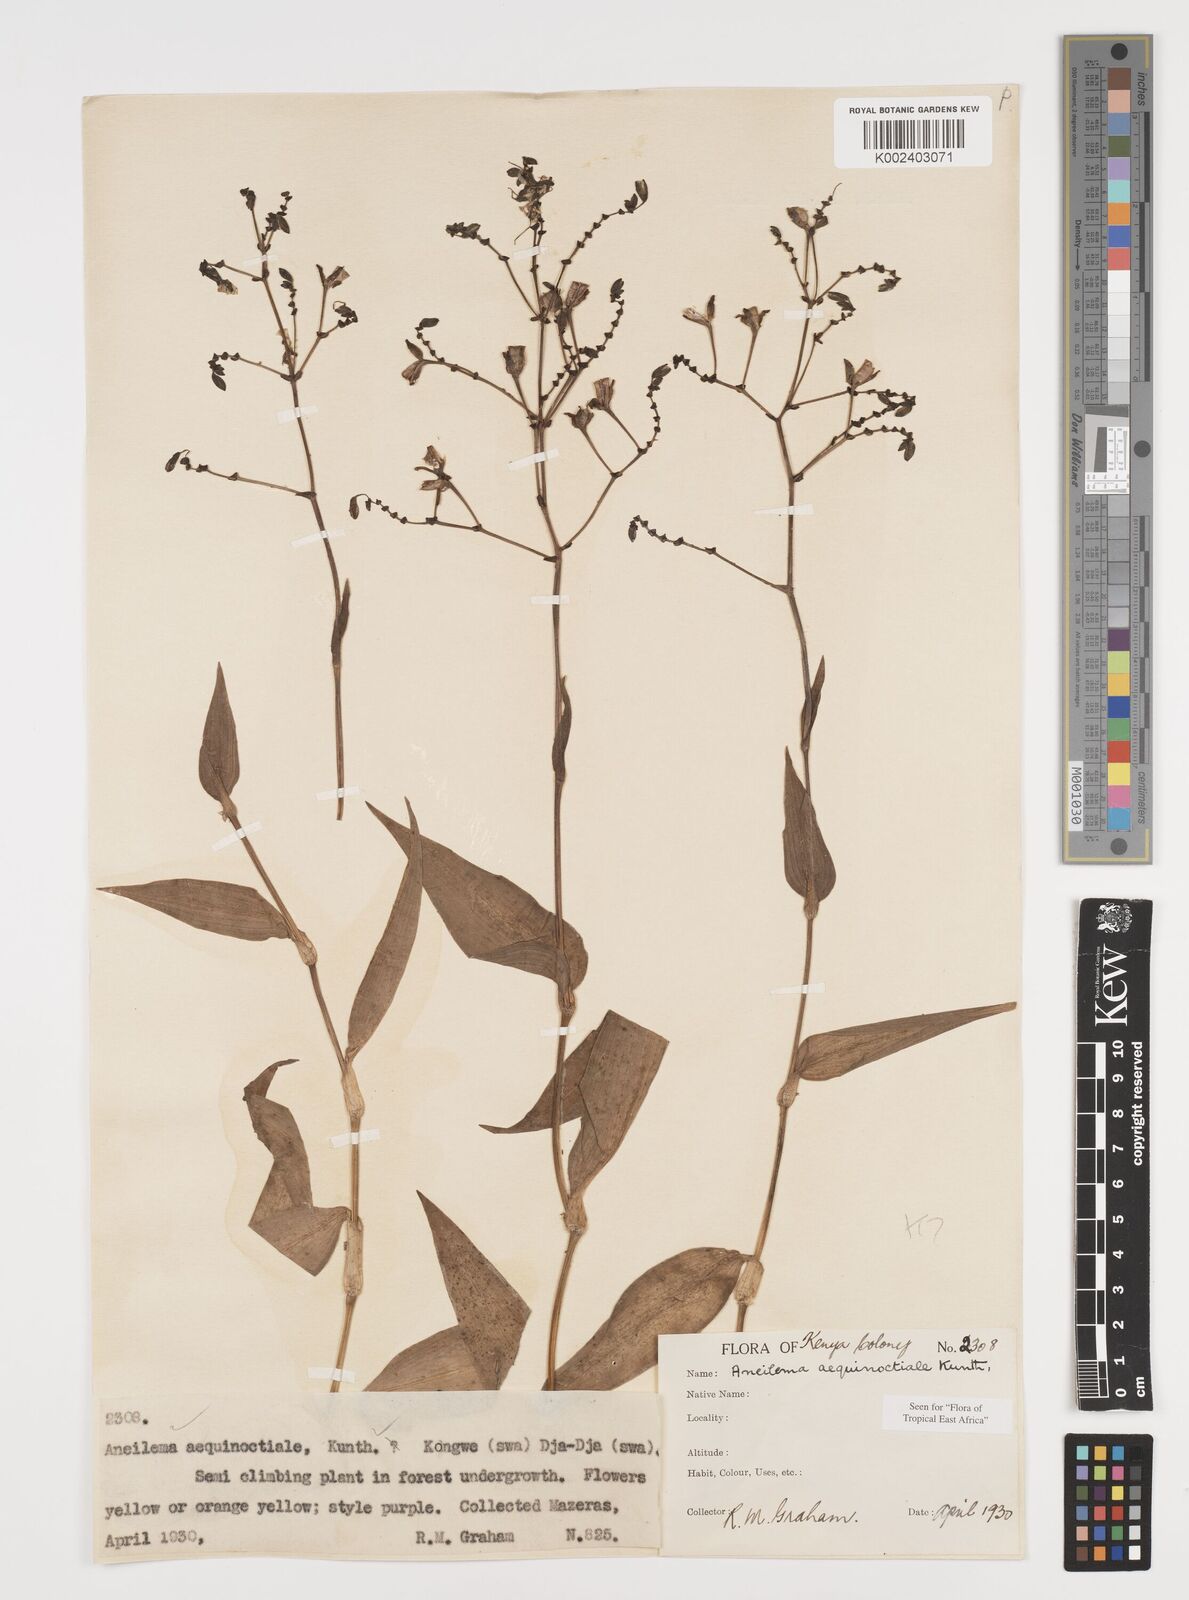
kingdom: Plantae
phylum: Tracheophyta
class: Liliopsida
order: Commelinales
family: Commelinaceae
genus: Aneilema
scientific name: Aneilema aequinoctiale
